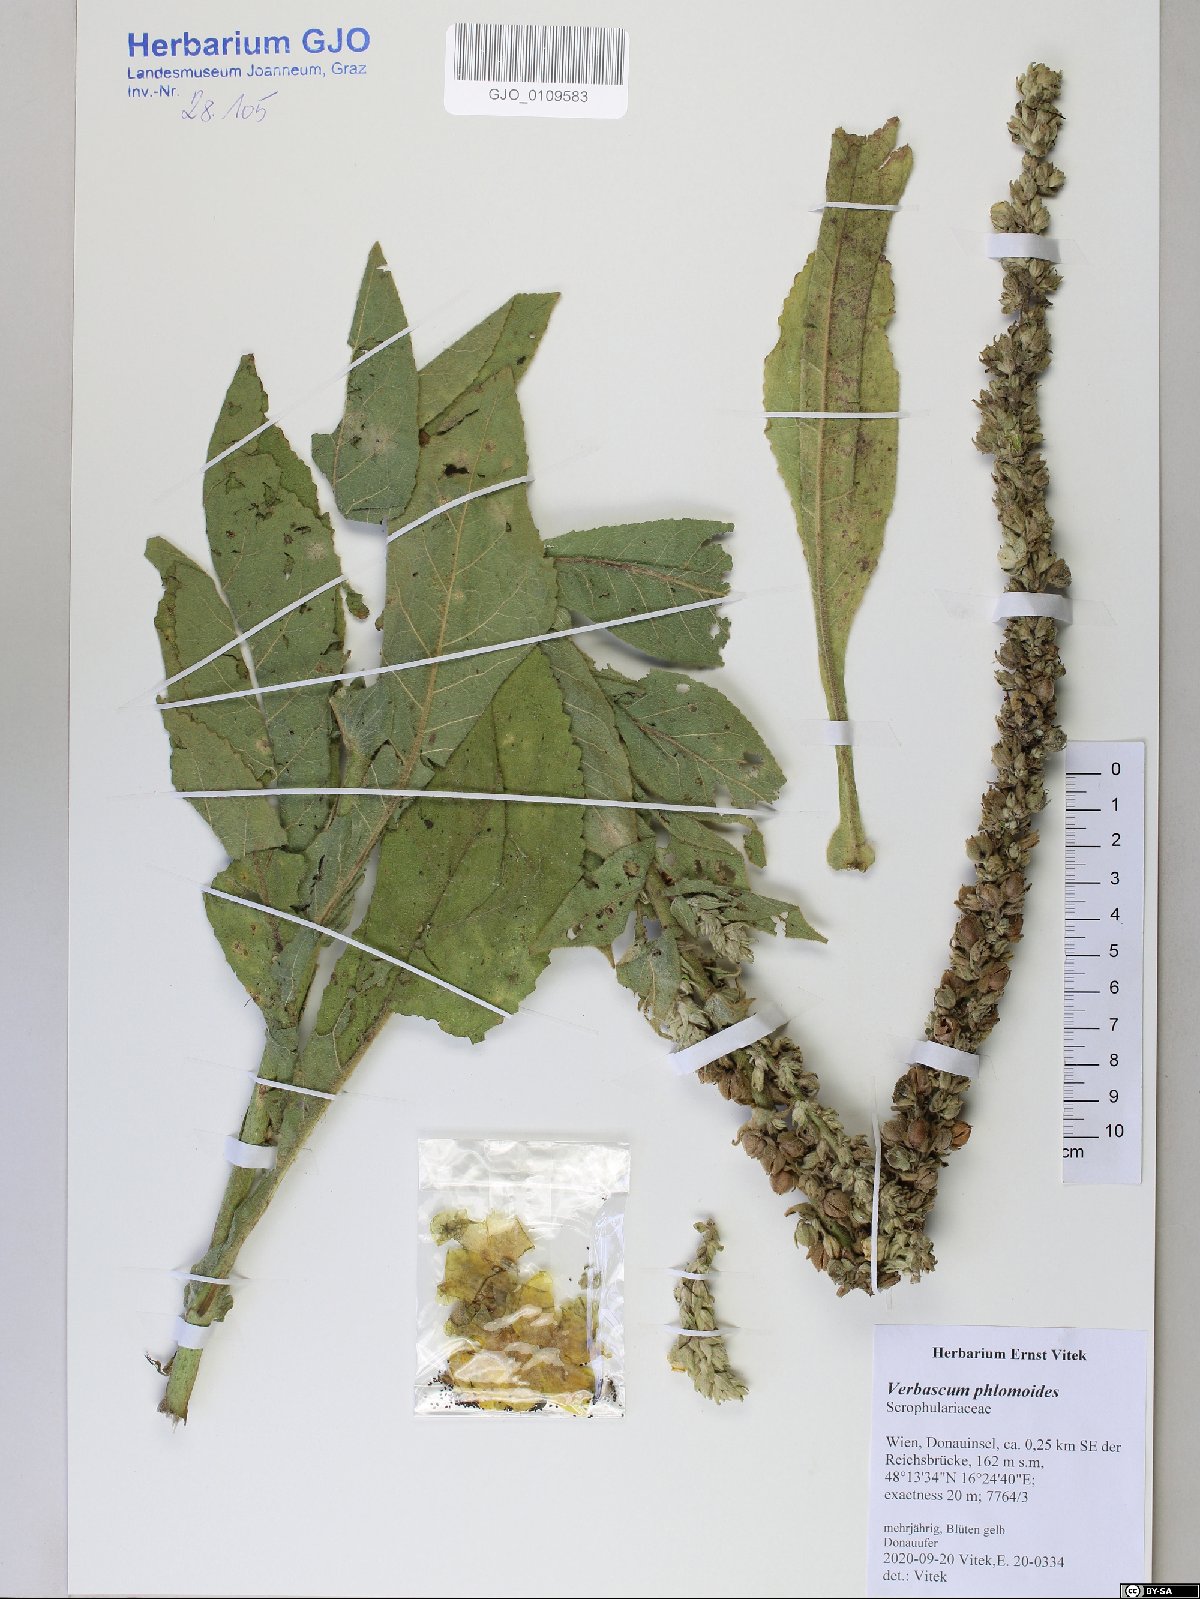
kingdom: Plantae
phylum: Tracheophyta
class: Magnoliopsida
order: Lamiales
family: Scrophulariaceae
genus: Verbascum
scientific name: Verbascum phlomoides
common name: Orange mullein
